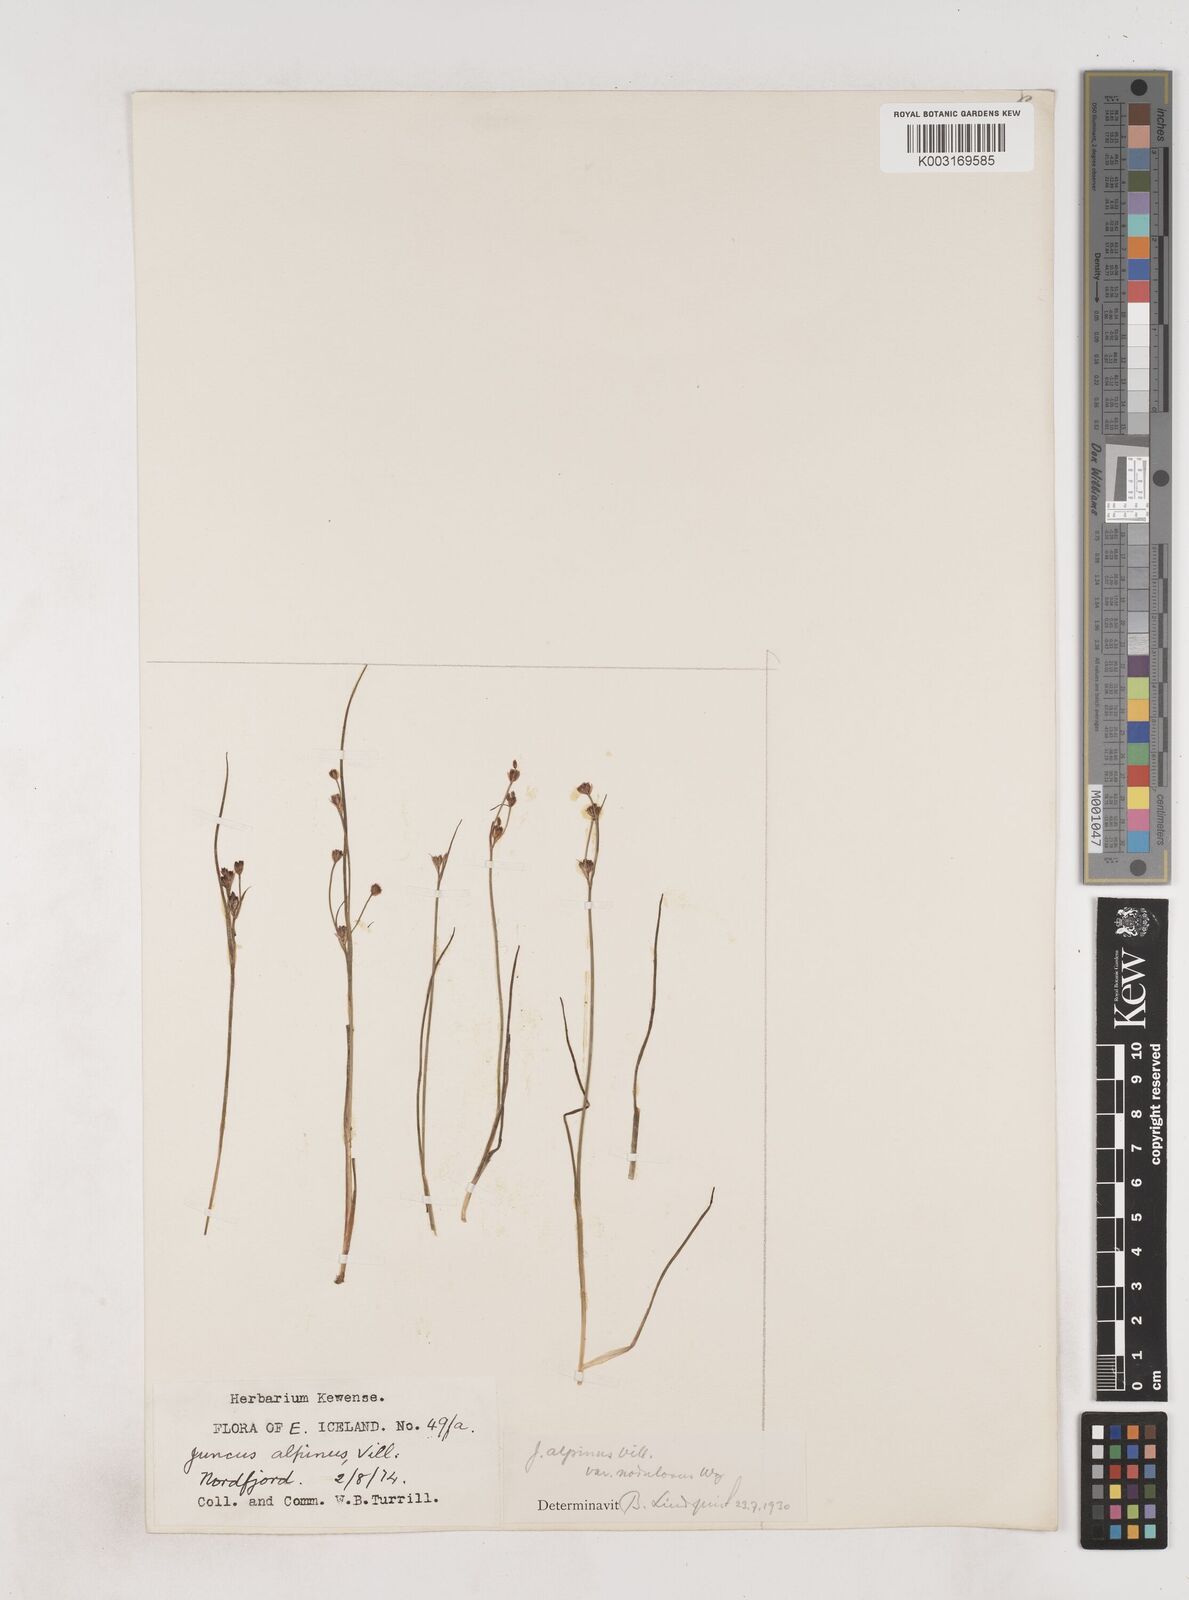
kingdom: Plantae
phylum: Tracheophyta
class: Liliopsida
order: Poales
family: Juncaceae
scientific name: Juncaceae
